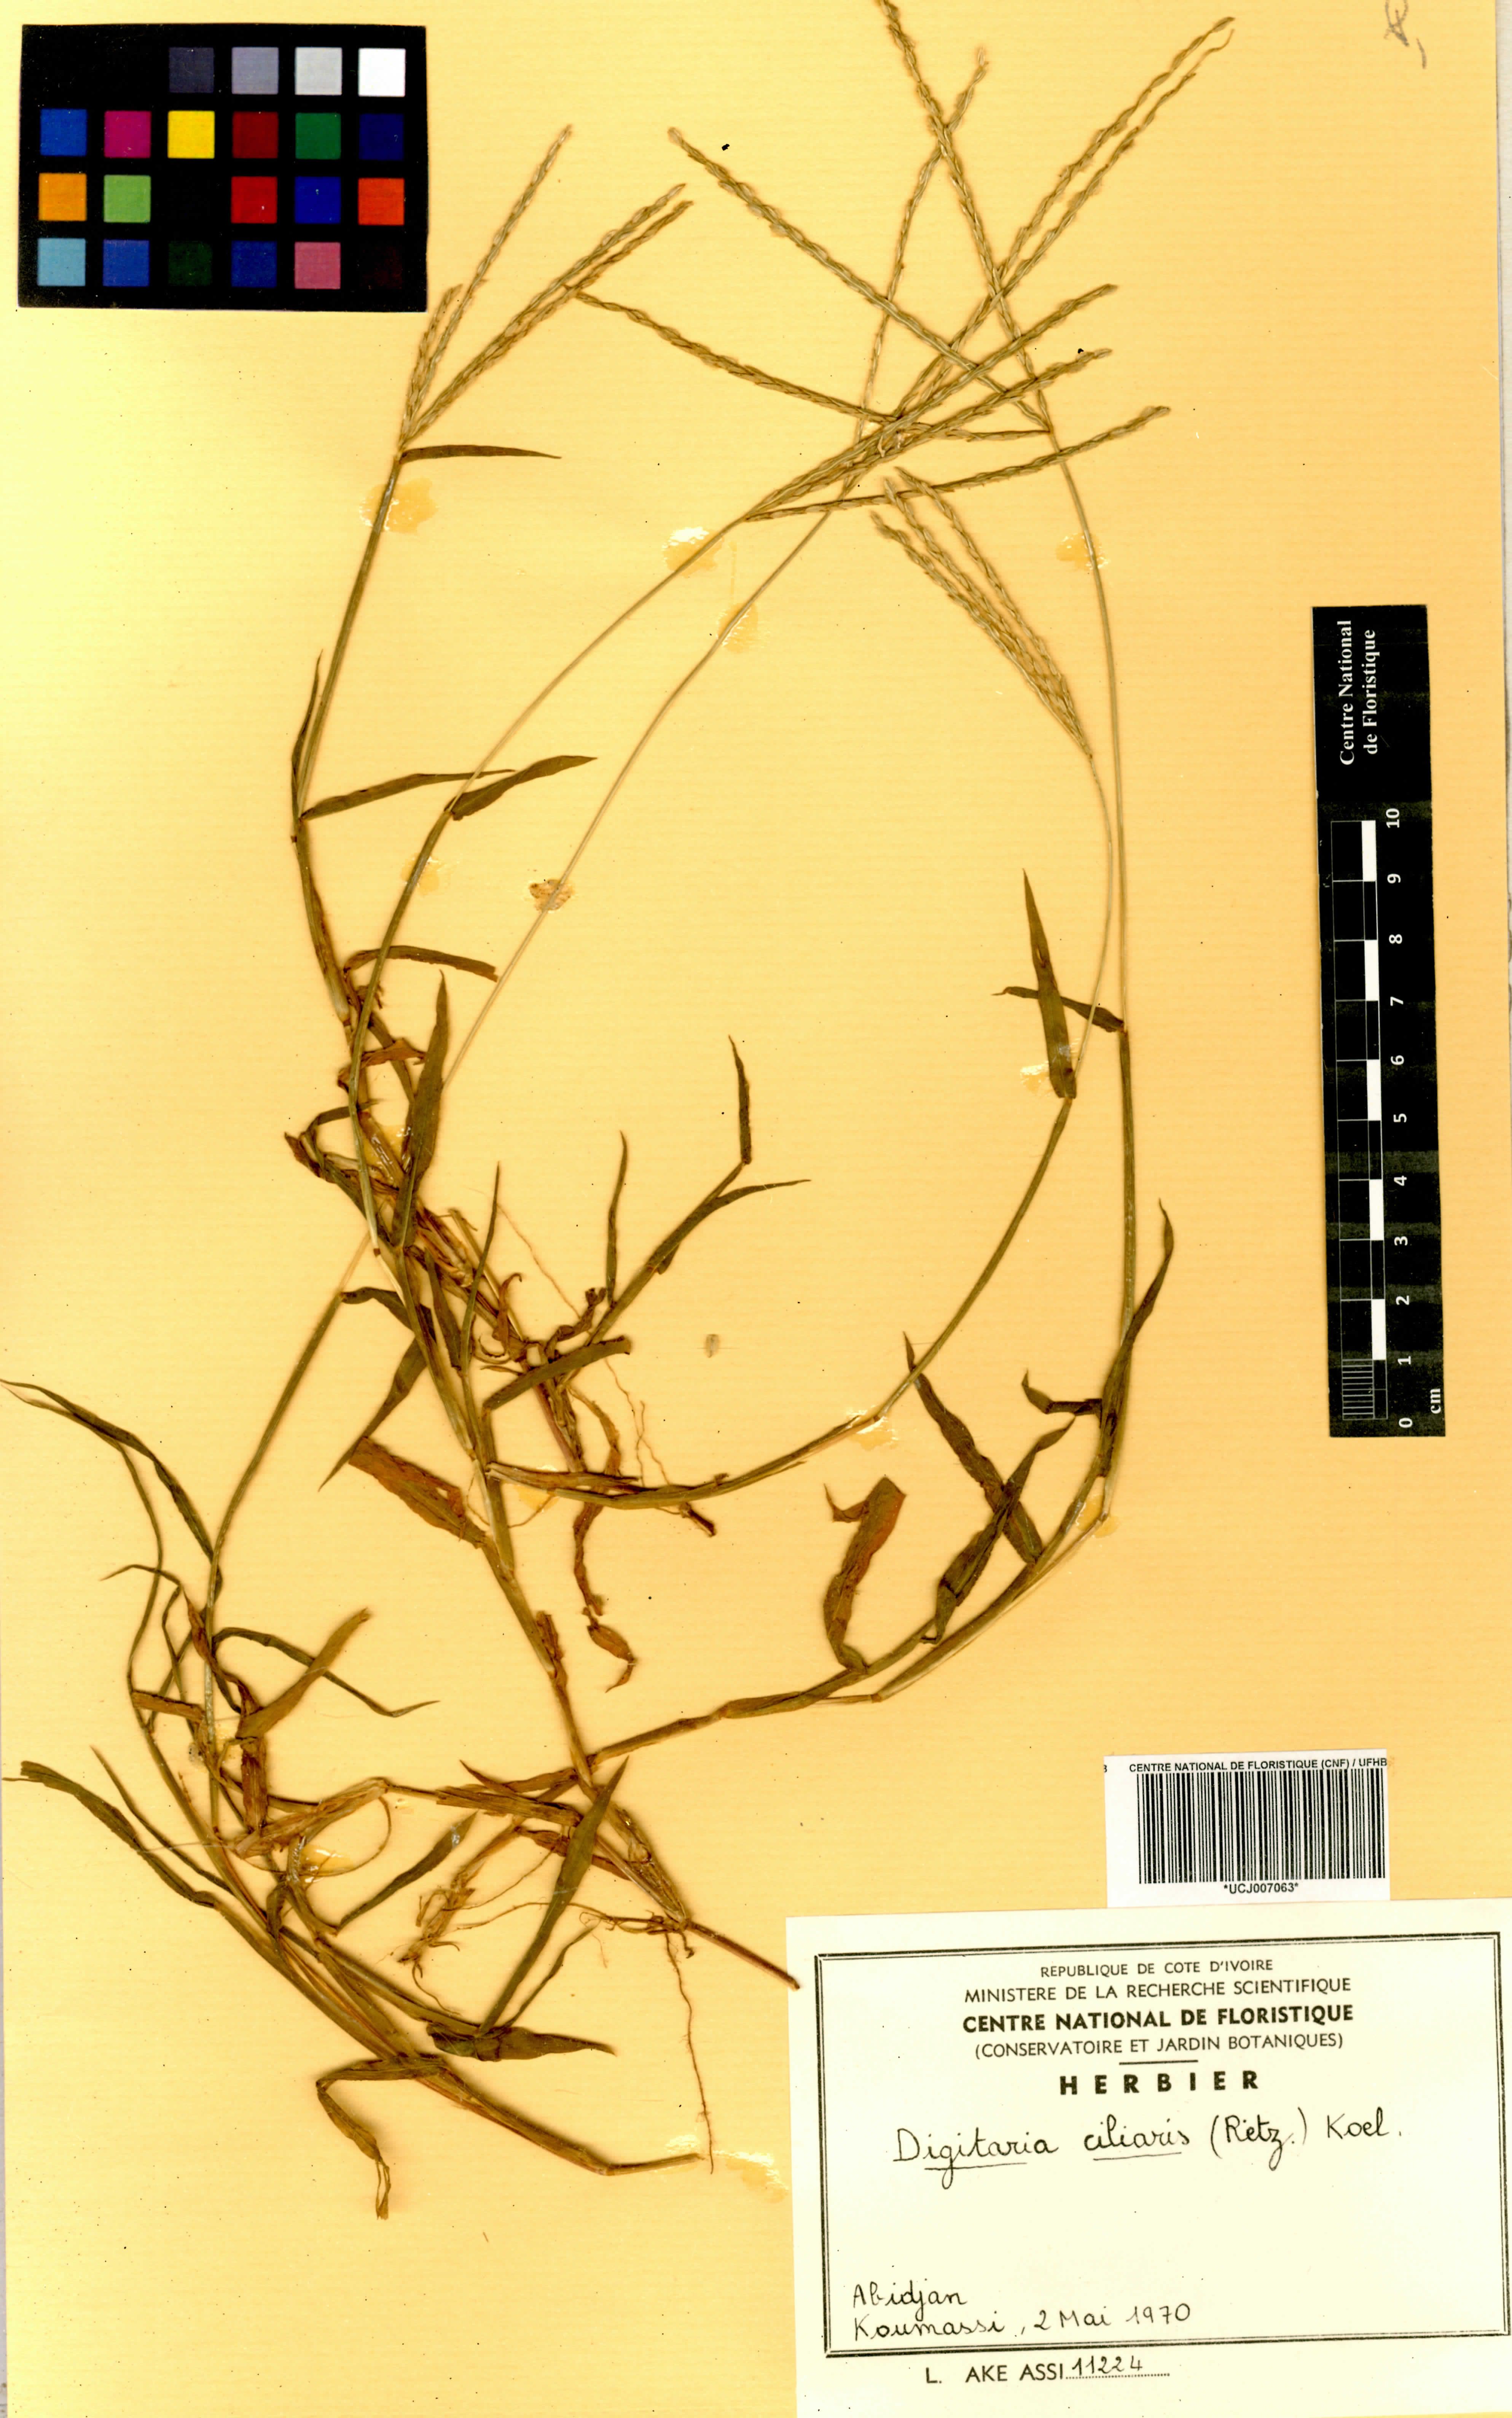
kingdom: Plantae
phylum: Tracheophyta
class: Liliopsida
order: Poales
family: Poaceae
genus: Digitaria
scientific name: Digitaria ciliaris
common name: Tropical finger-grass
